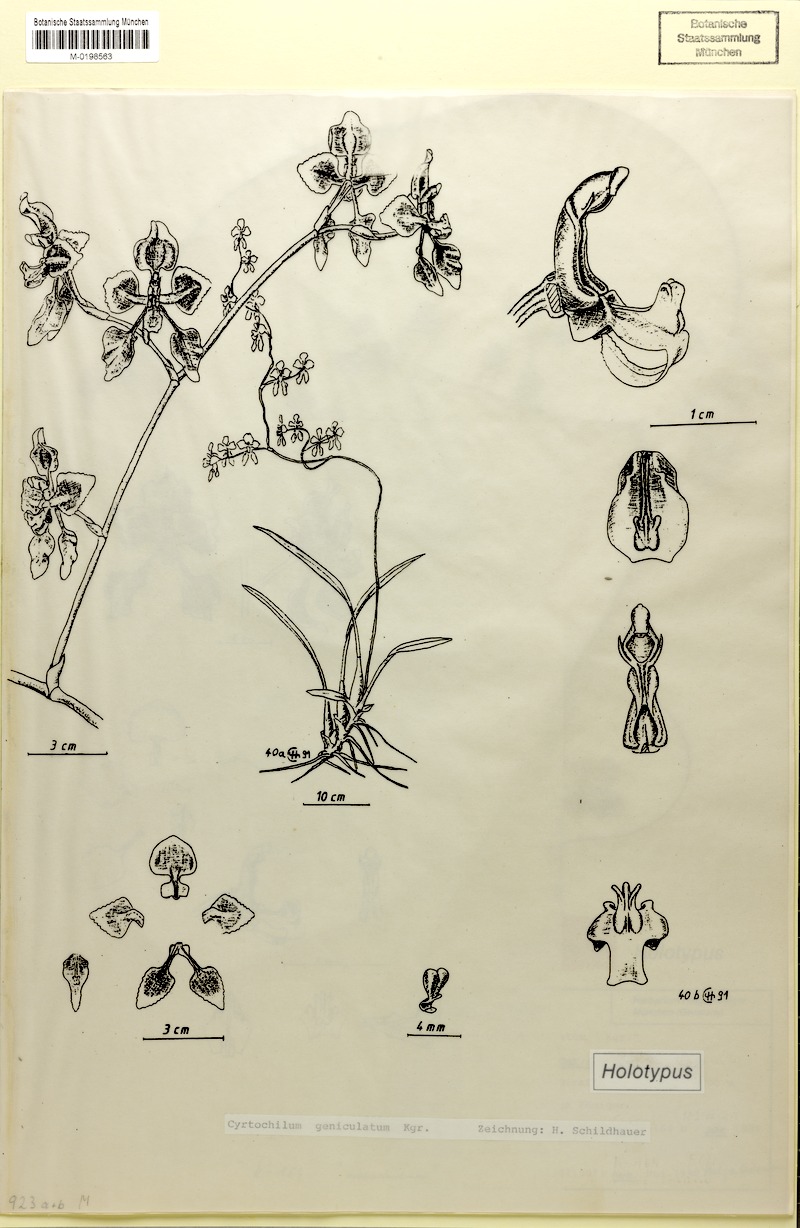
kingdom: Plantae
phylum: Tracheophyta
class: Liliopsida
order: Asparagales
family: Orchidaceae
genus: Cyrtochilum
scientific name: Cyrtochilum geniculatum
